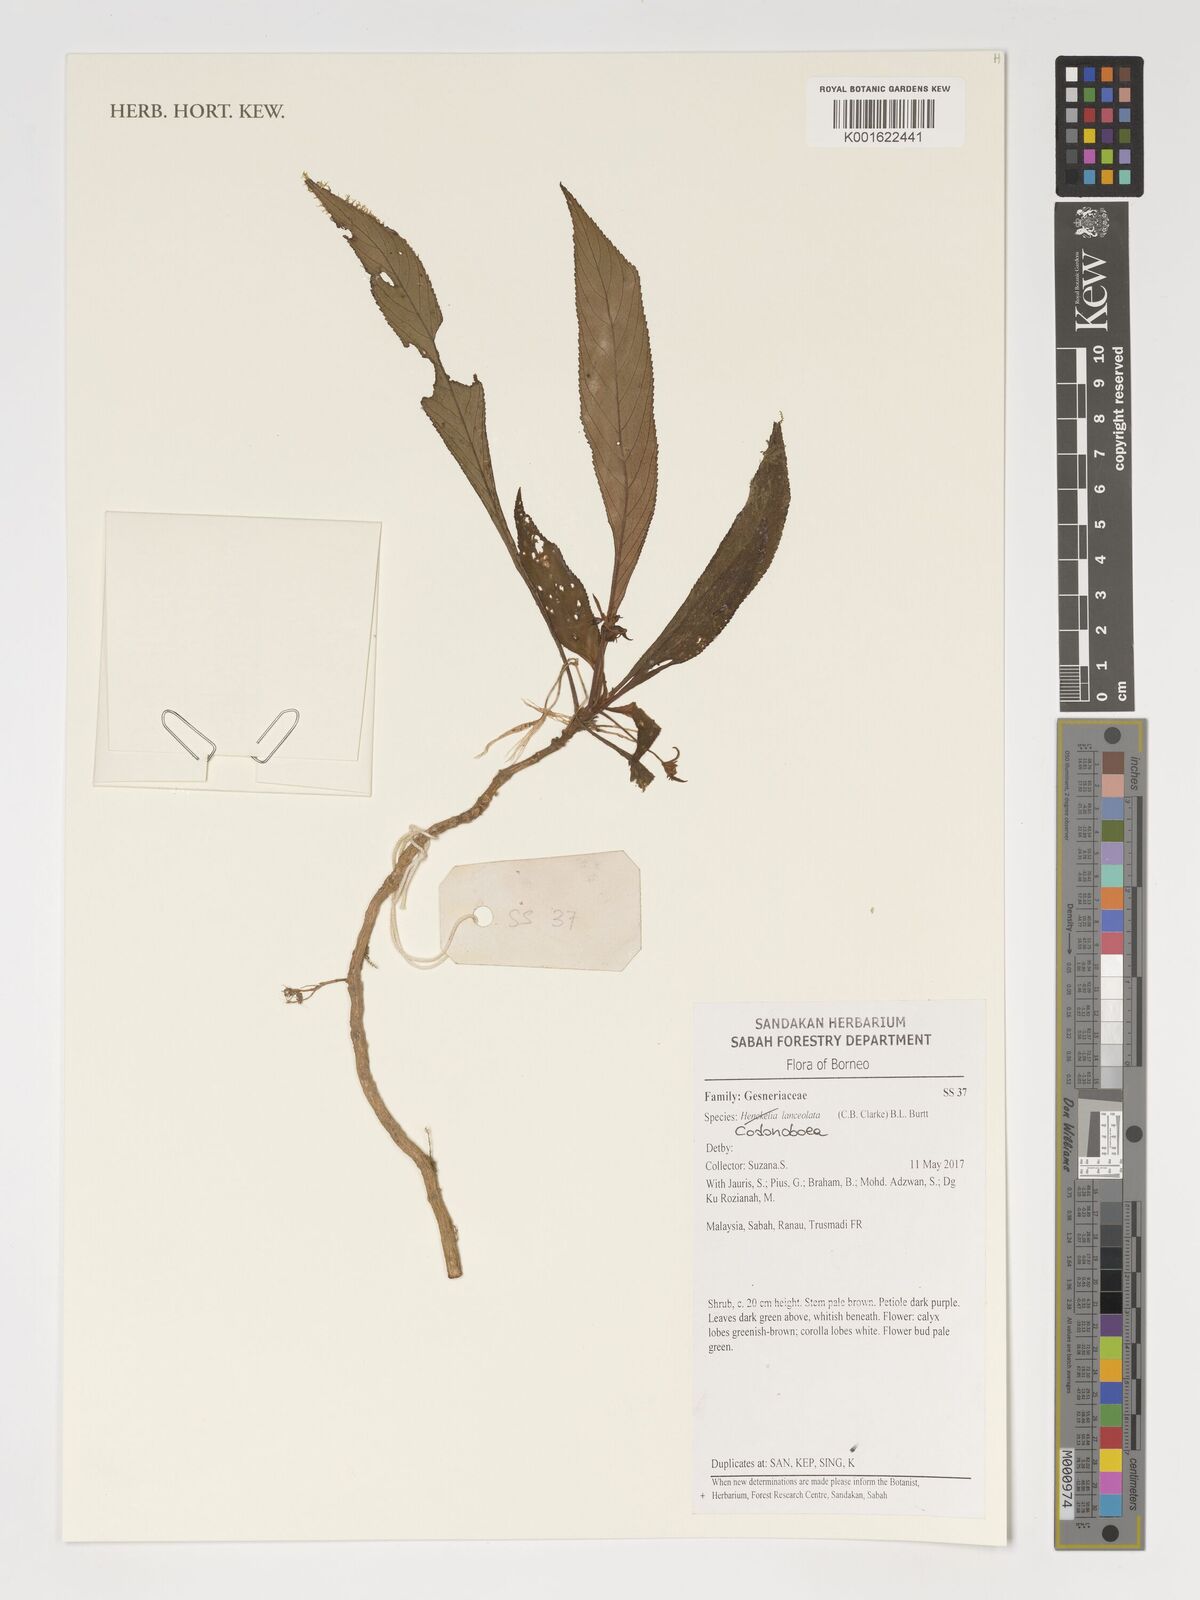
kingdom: Plantae
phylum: Tracheophyta
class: Magnoliopsida
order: Lamiales
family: Gesneriaceae
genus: Codonoboea
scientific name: Codonoboea lanceolata
